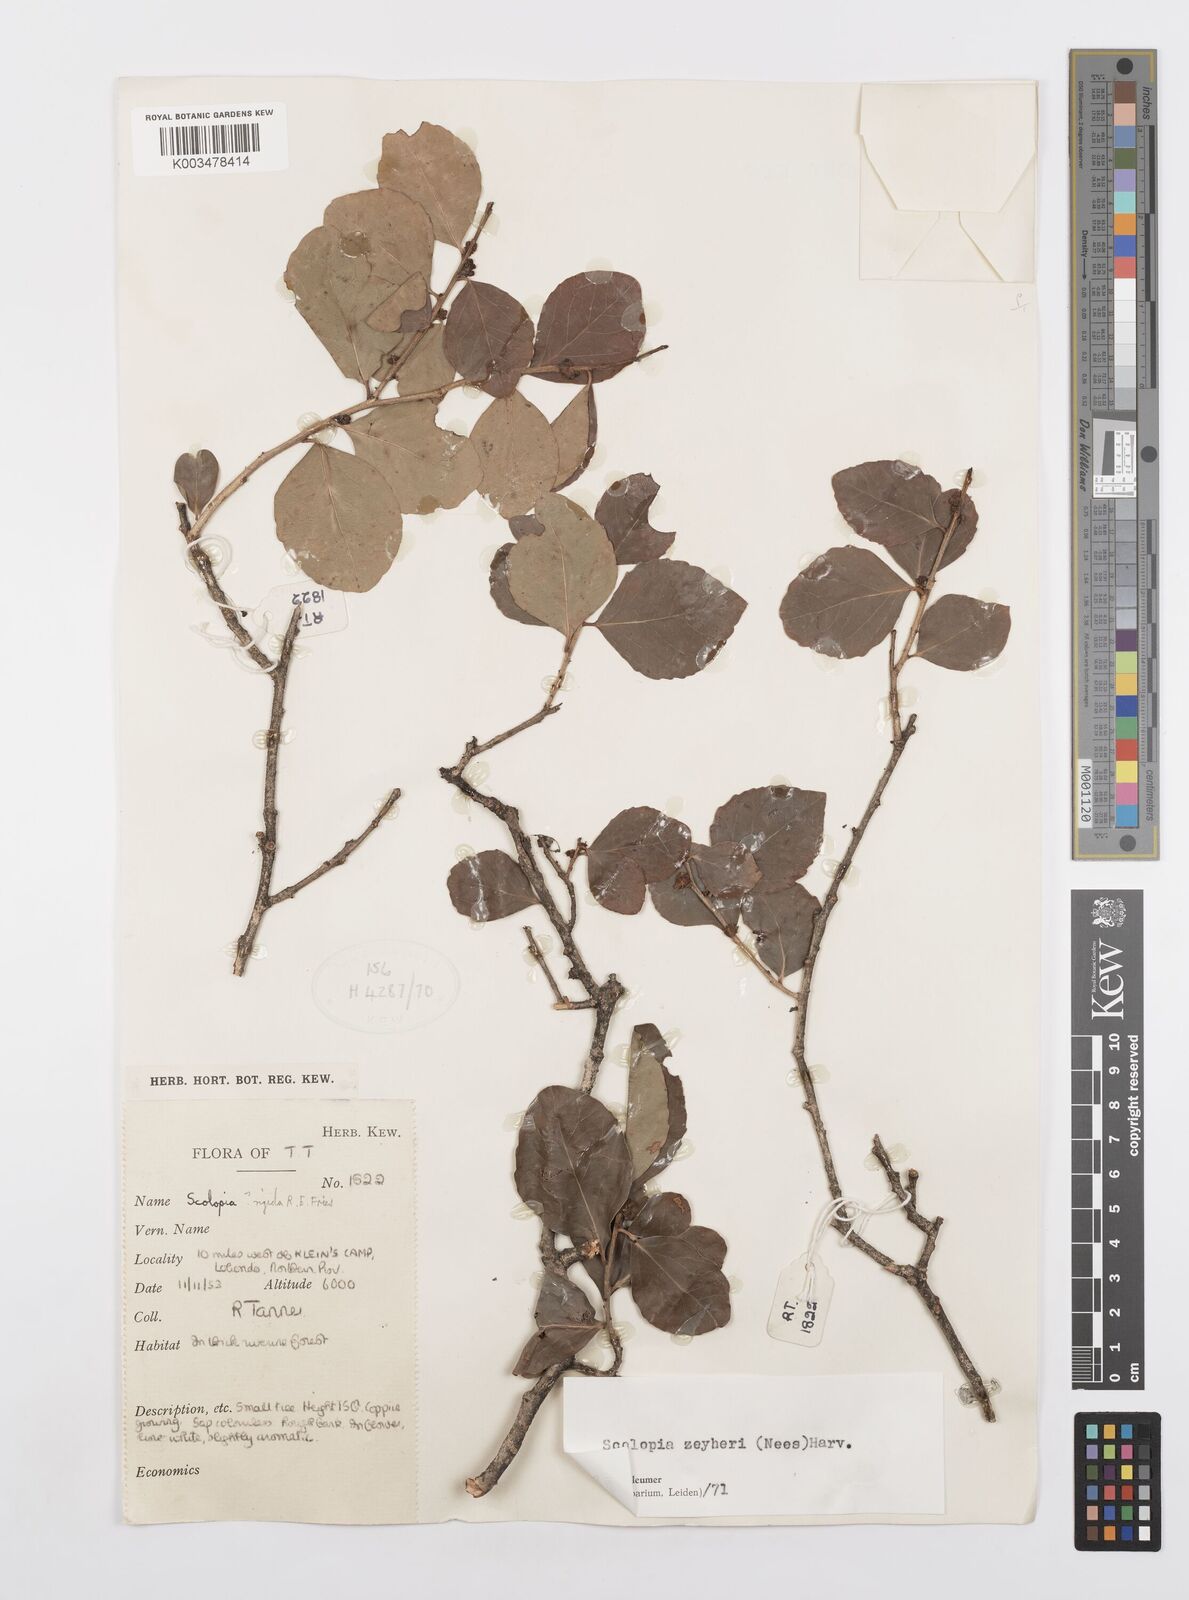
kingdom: Plantae
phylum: Tracheophyta
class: Magnoliopsida
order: Malpighiales
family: Salicaceae
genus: Scolopia
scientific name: Scolopia zeyheri
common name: Thorn pear
